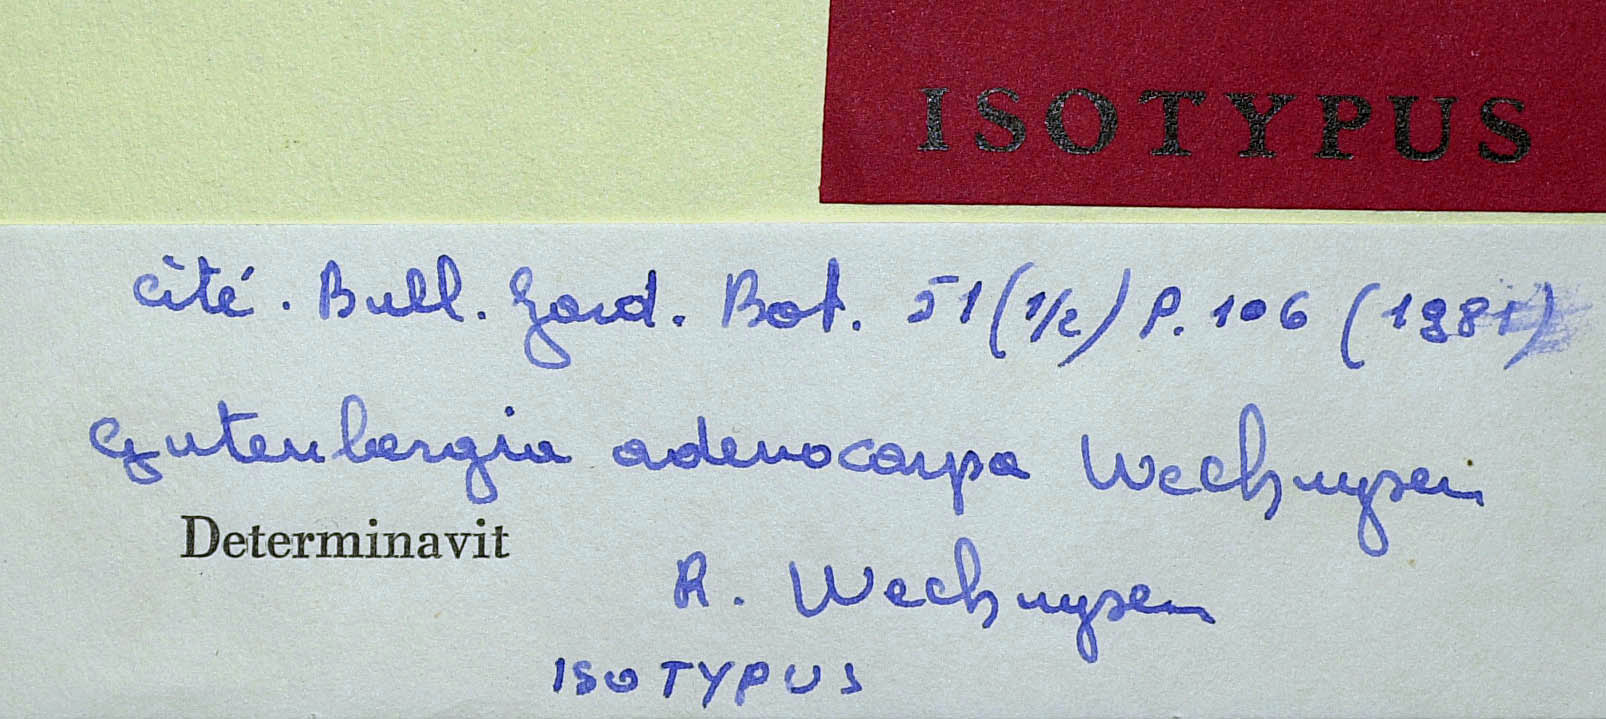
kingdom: Plantae
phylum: Tracheophyta
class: Magnoliopsida
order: Asterales
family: Asteraceae
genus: Gutenbergia
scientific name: Gutenbergia adenocarpa
